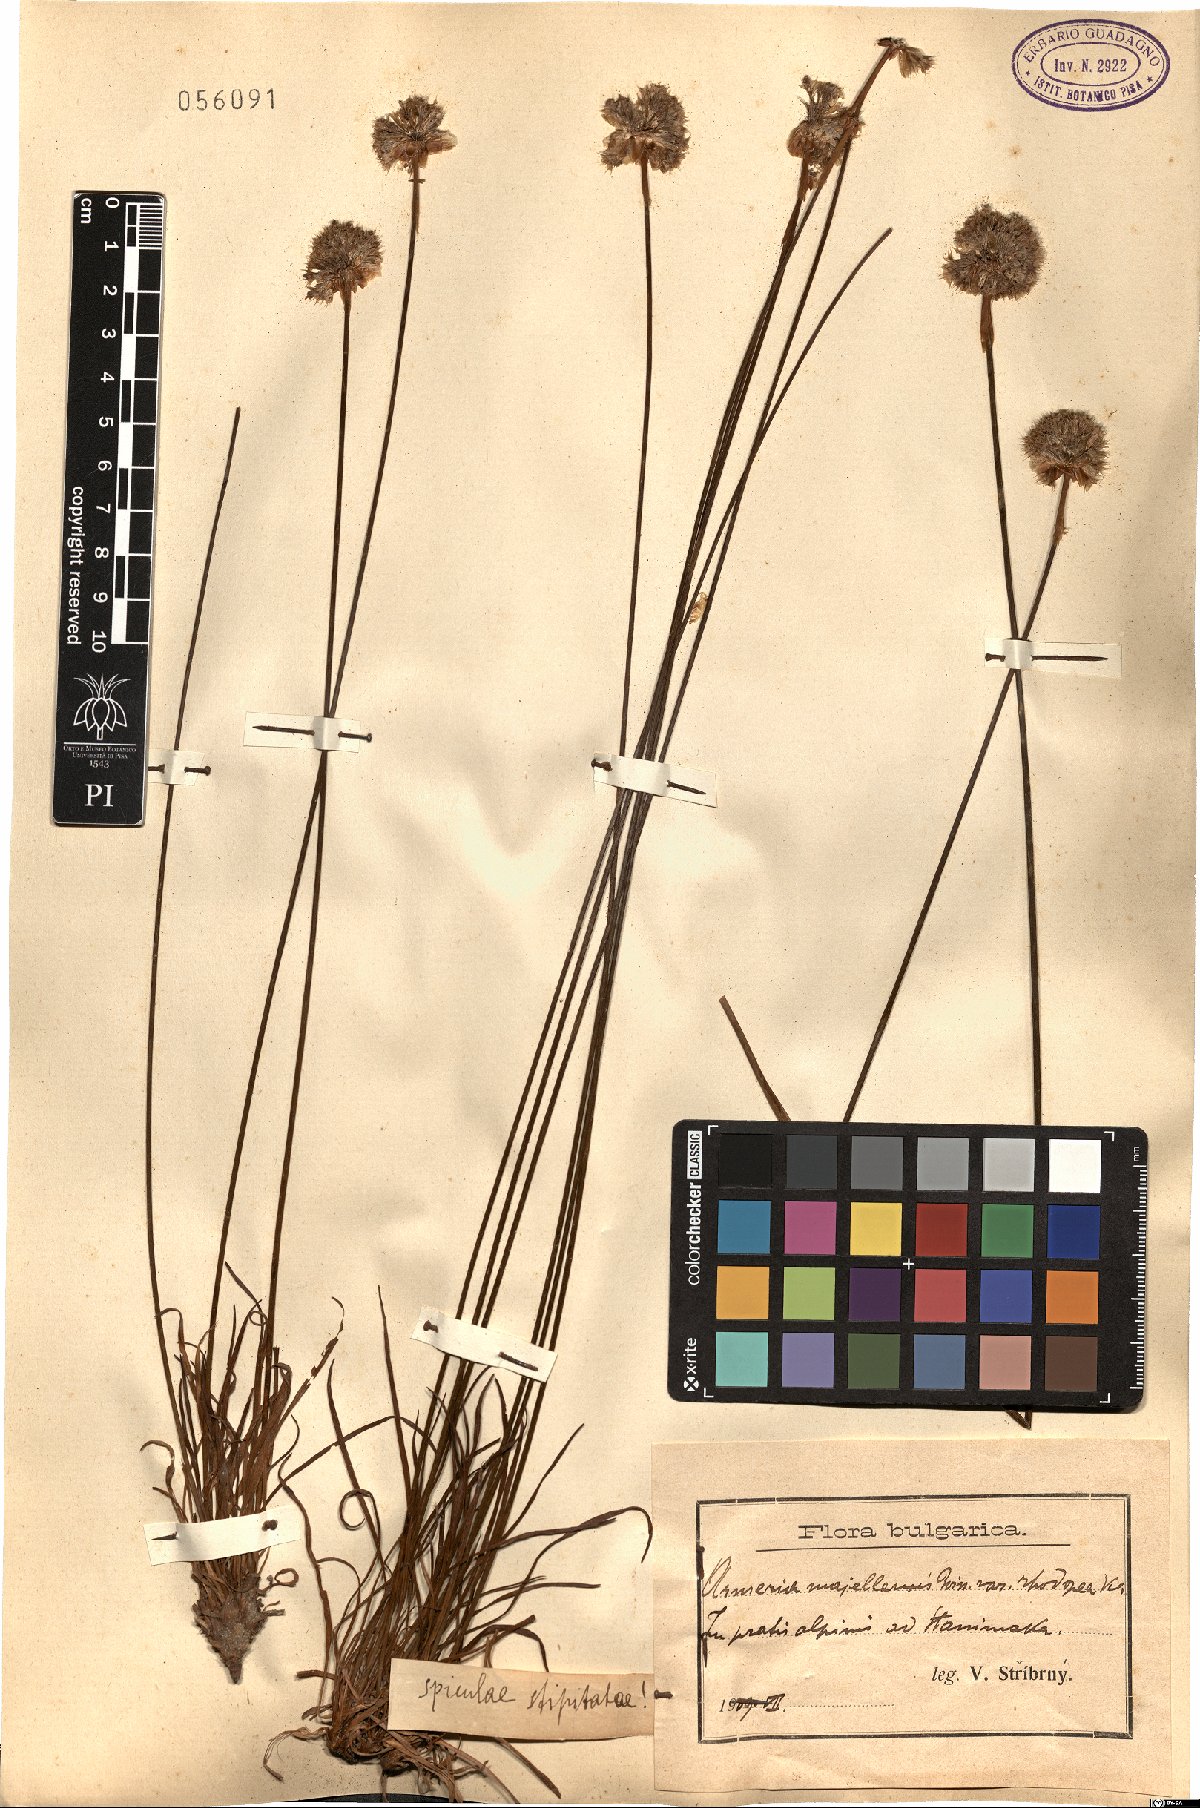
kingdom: Plantae
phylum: Tracheophyta
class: Magnoliopsida
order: Caryophyllales
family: Plumbaginaceae
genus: Armeria
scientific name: Armeria rumelica
